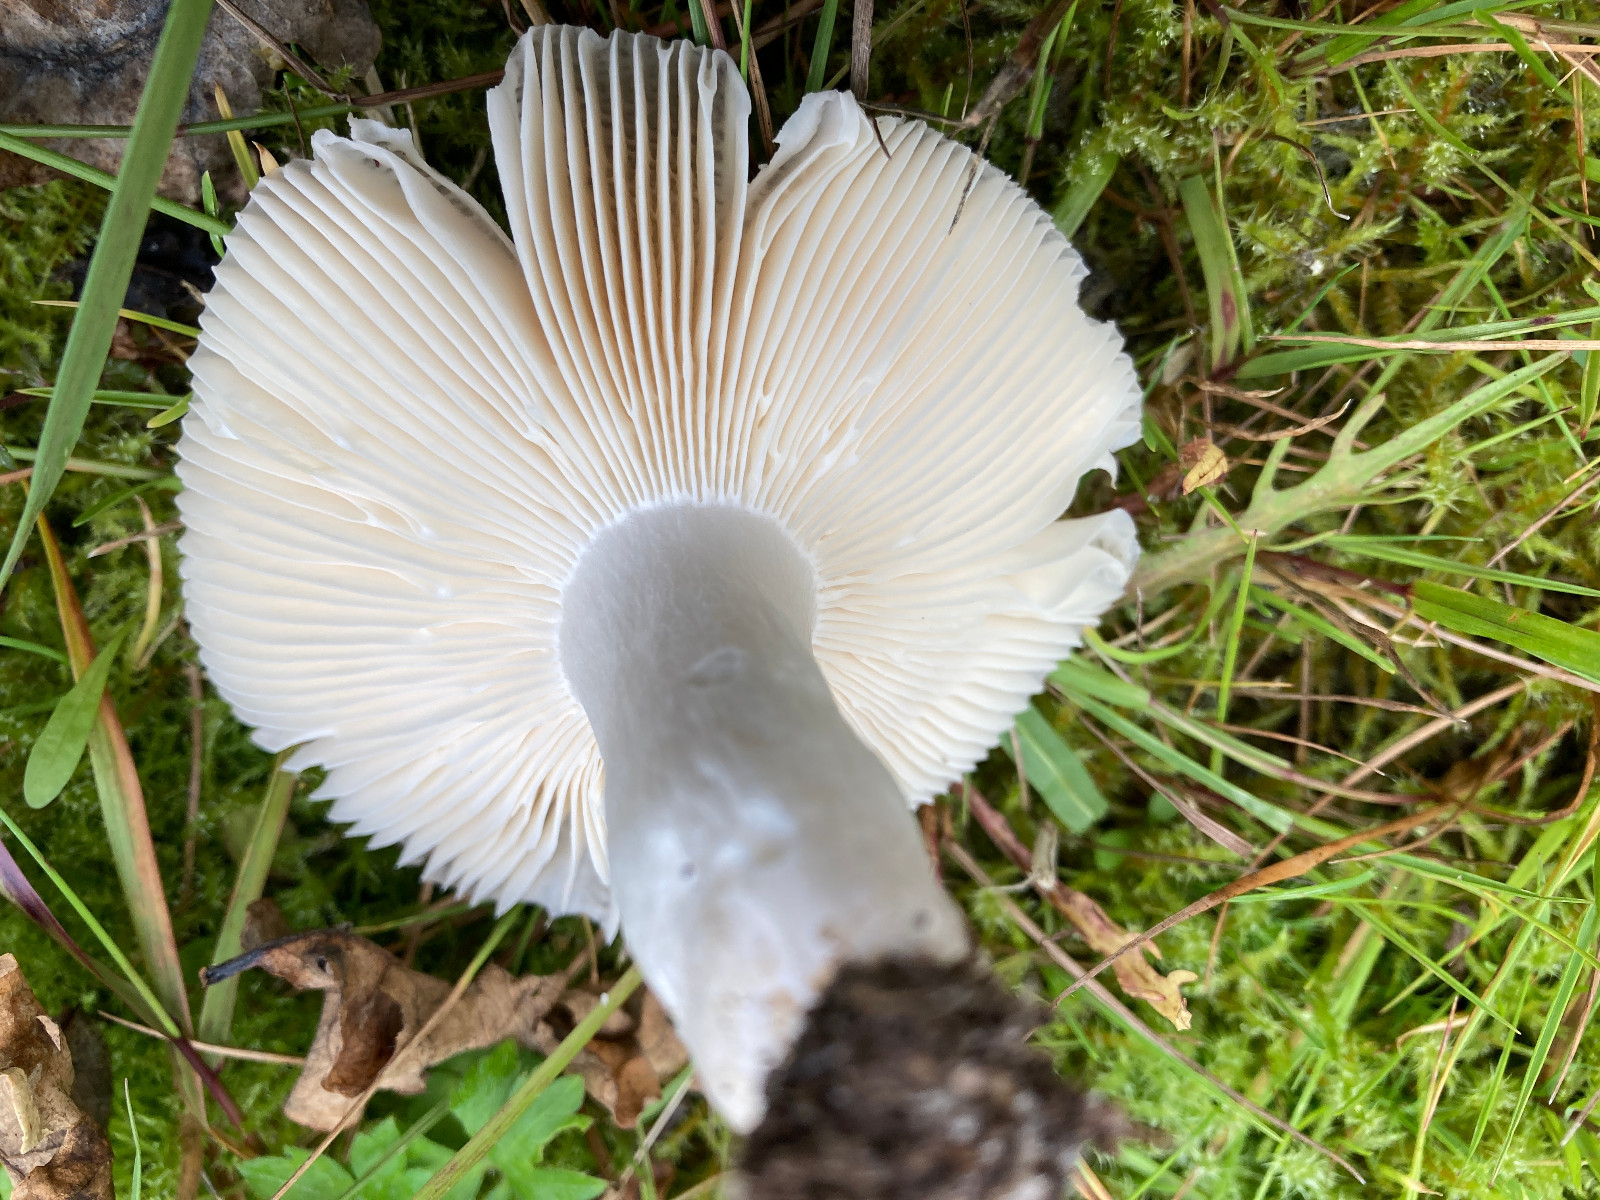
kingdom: Fungi
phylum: Basidiomycota
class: Agaricomycetes
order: Russulales
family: Russulaceae
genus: Russula
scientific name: Russula
